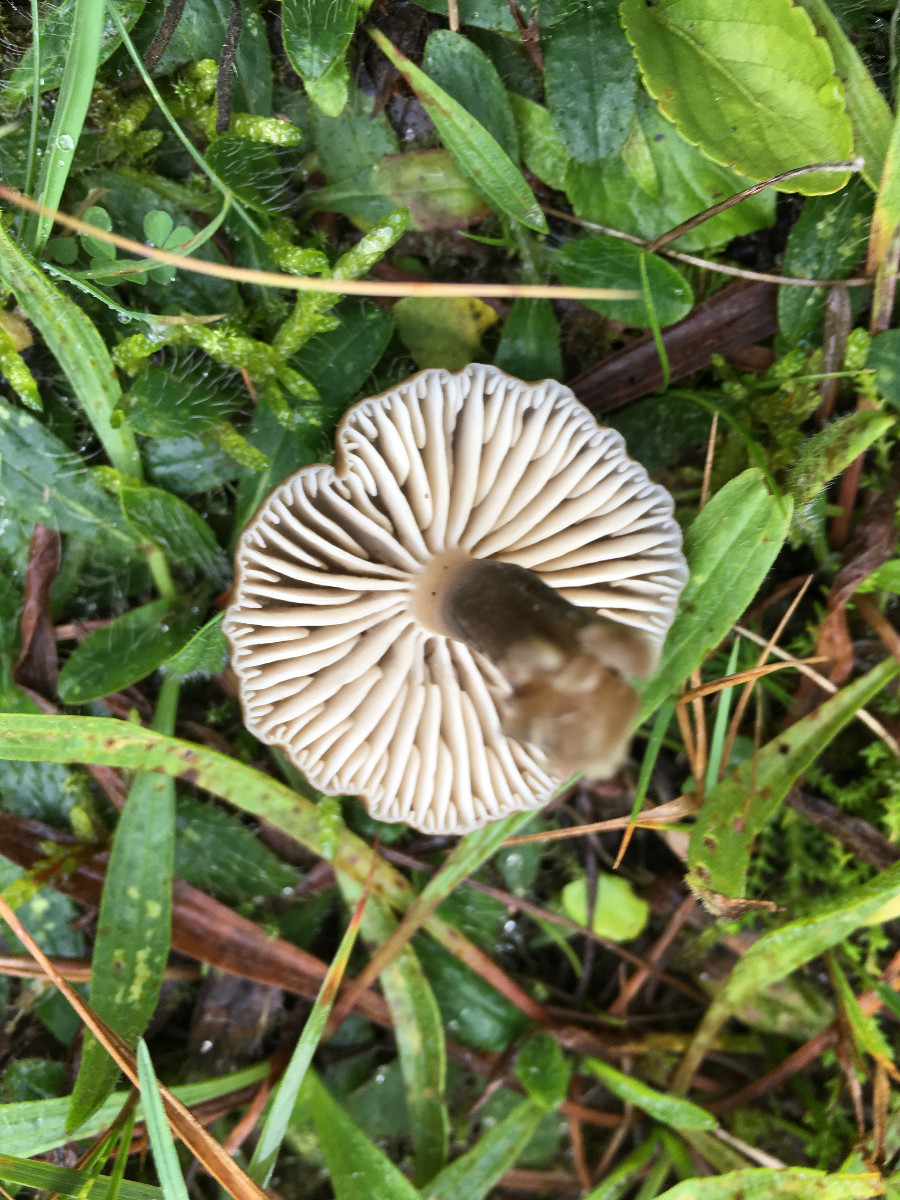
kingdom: Fungi
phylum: Basidiomycota
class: Agaricomycetes
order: Agaricales
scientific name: Agaricales
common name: champignonordenen
